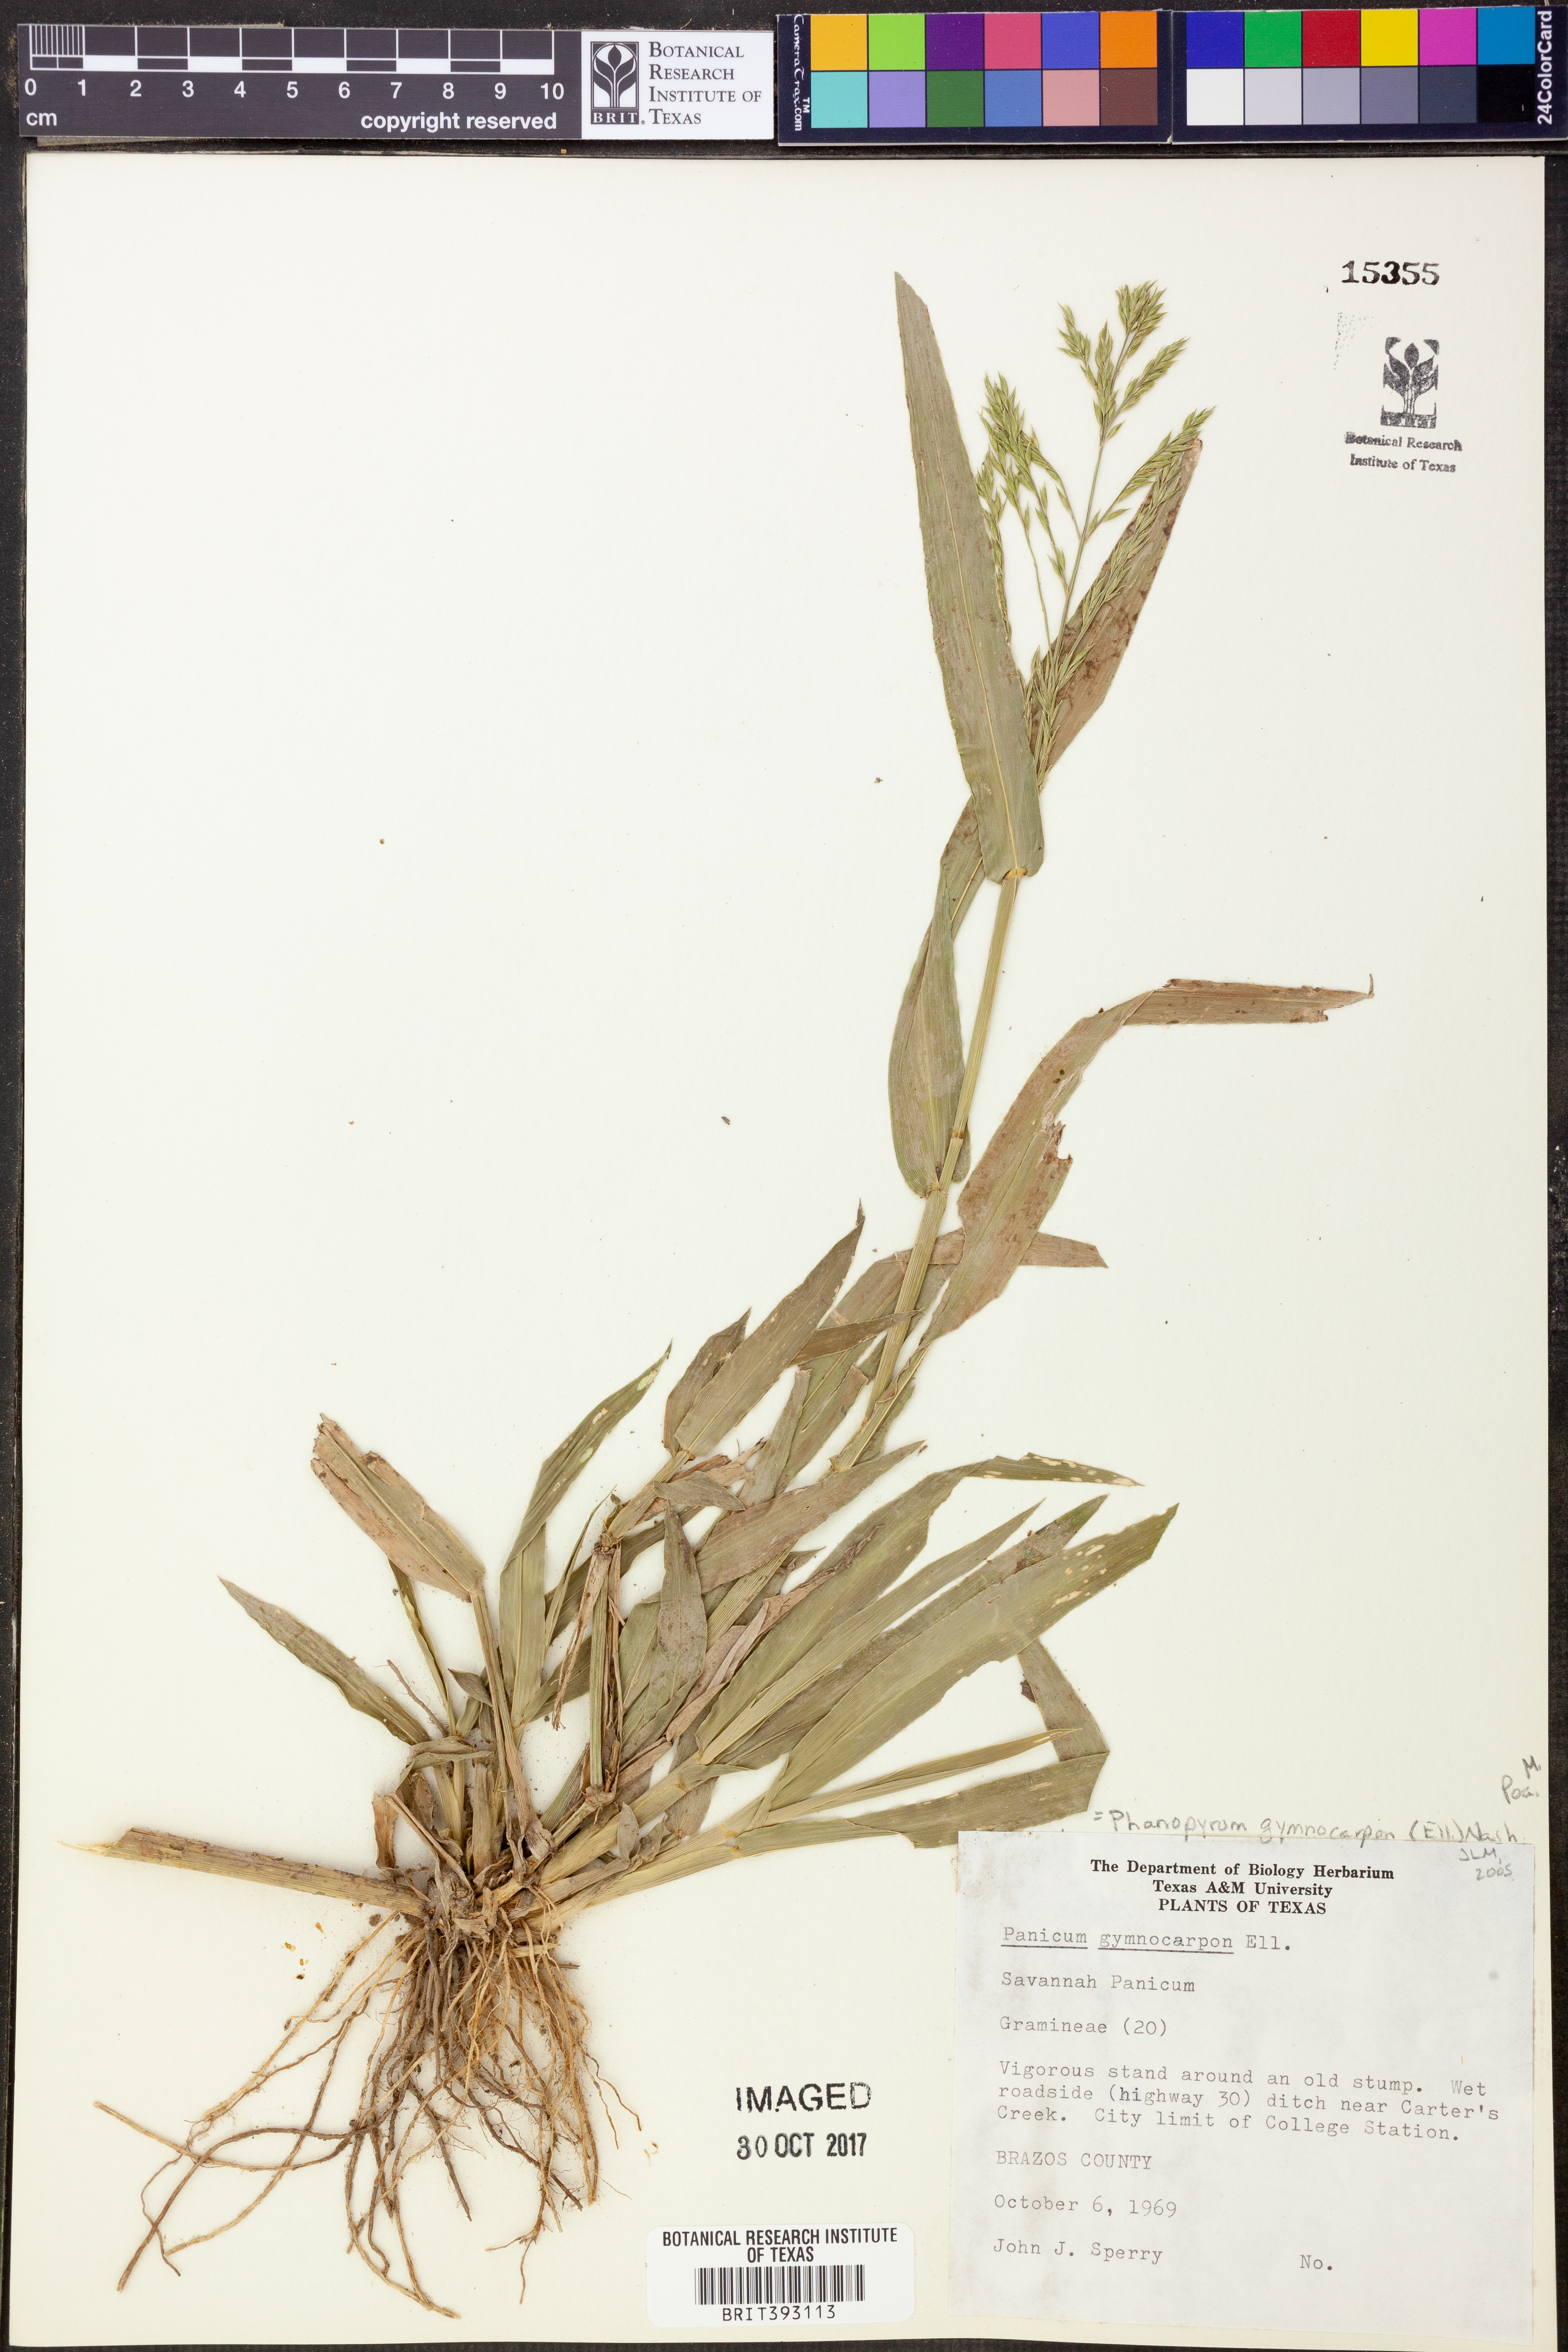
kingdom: Plantae
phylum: Tracheophyta
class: Liliopsida
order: Poales
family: Poaceae
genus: Panicum
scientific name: Panicum gymnocarpon
